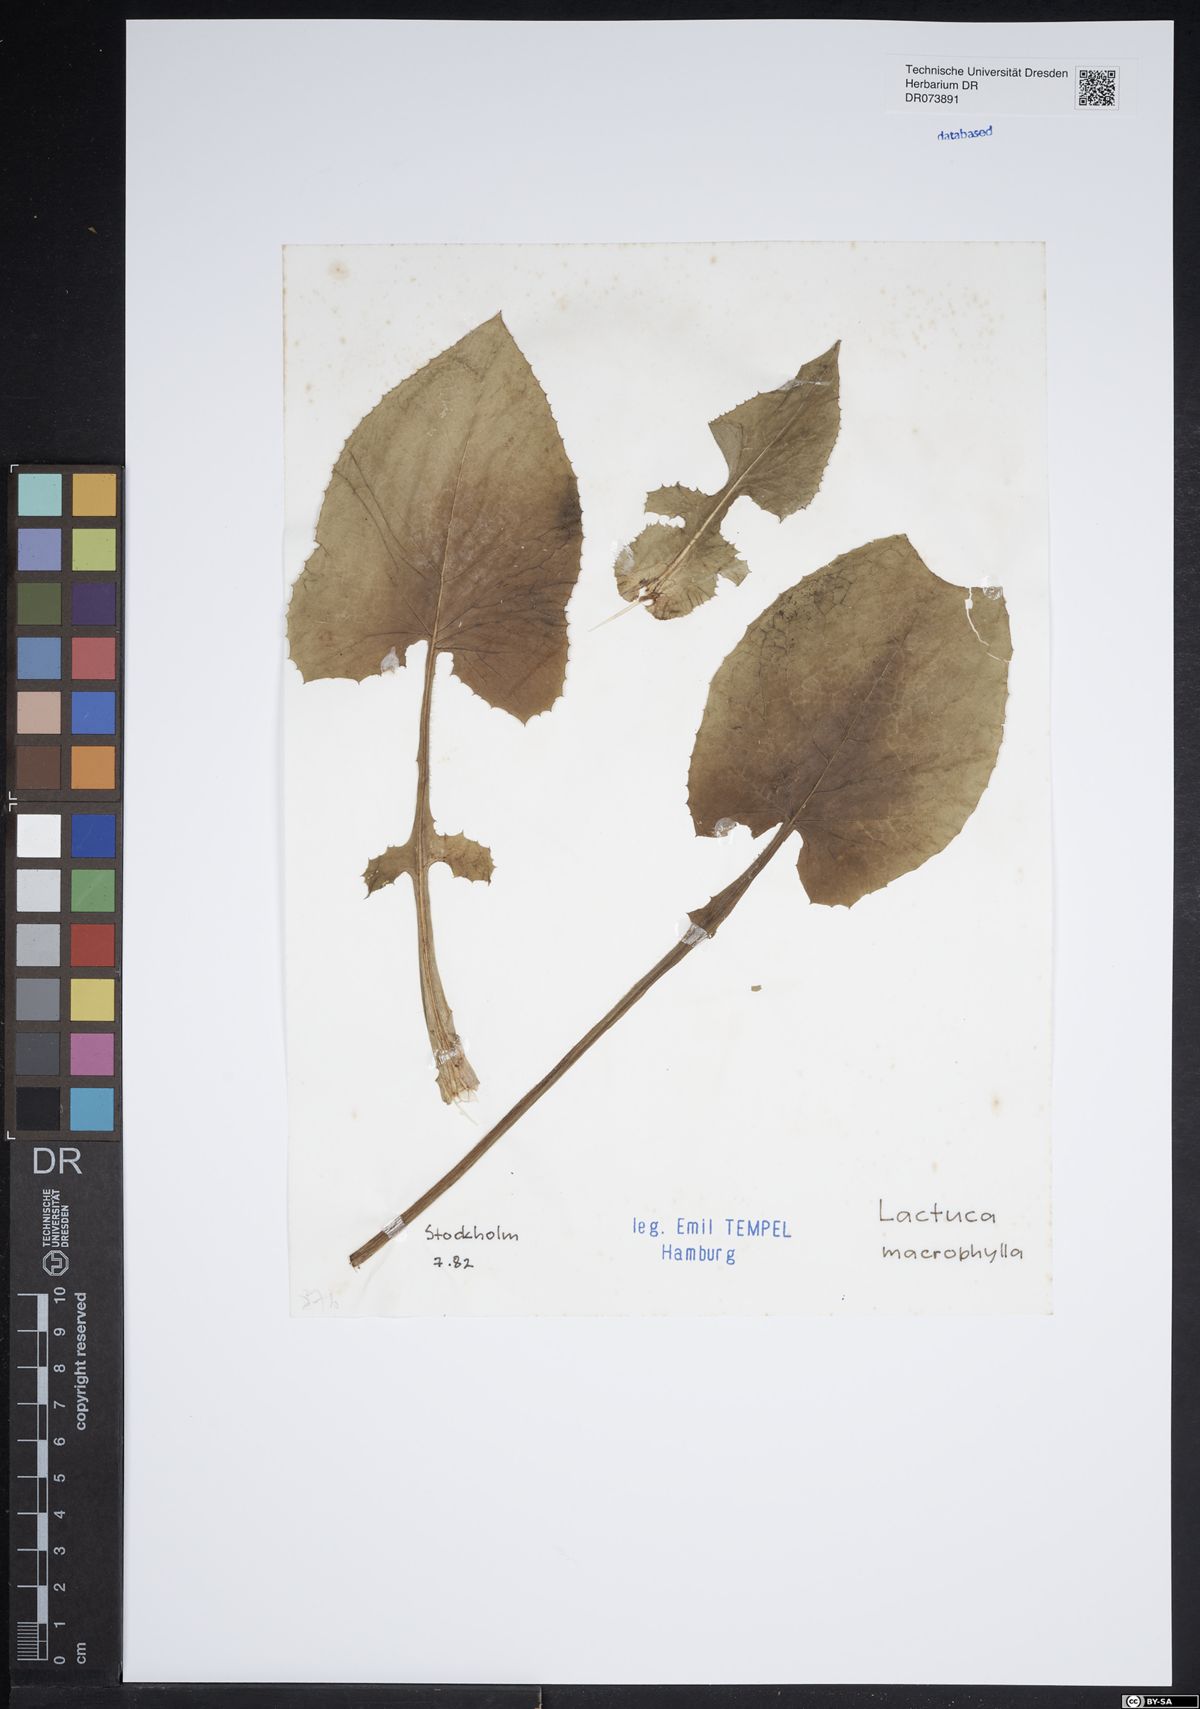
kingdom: Plantae
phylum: Tracheophyta
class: Magnoliopsida
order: Asterales
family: Asteraceae
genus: Lactuca
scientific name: Lactuca macrophylla
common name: Common blue-sow-thistle
